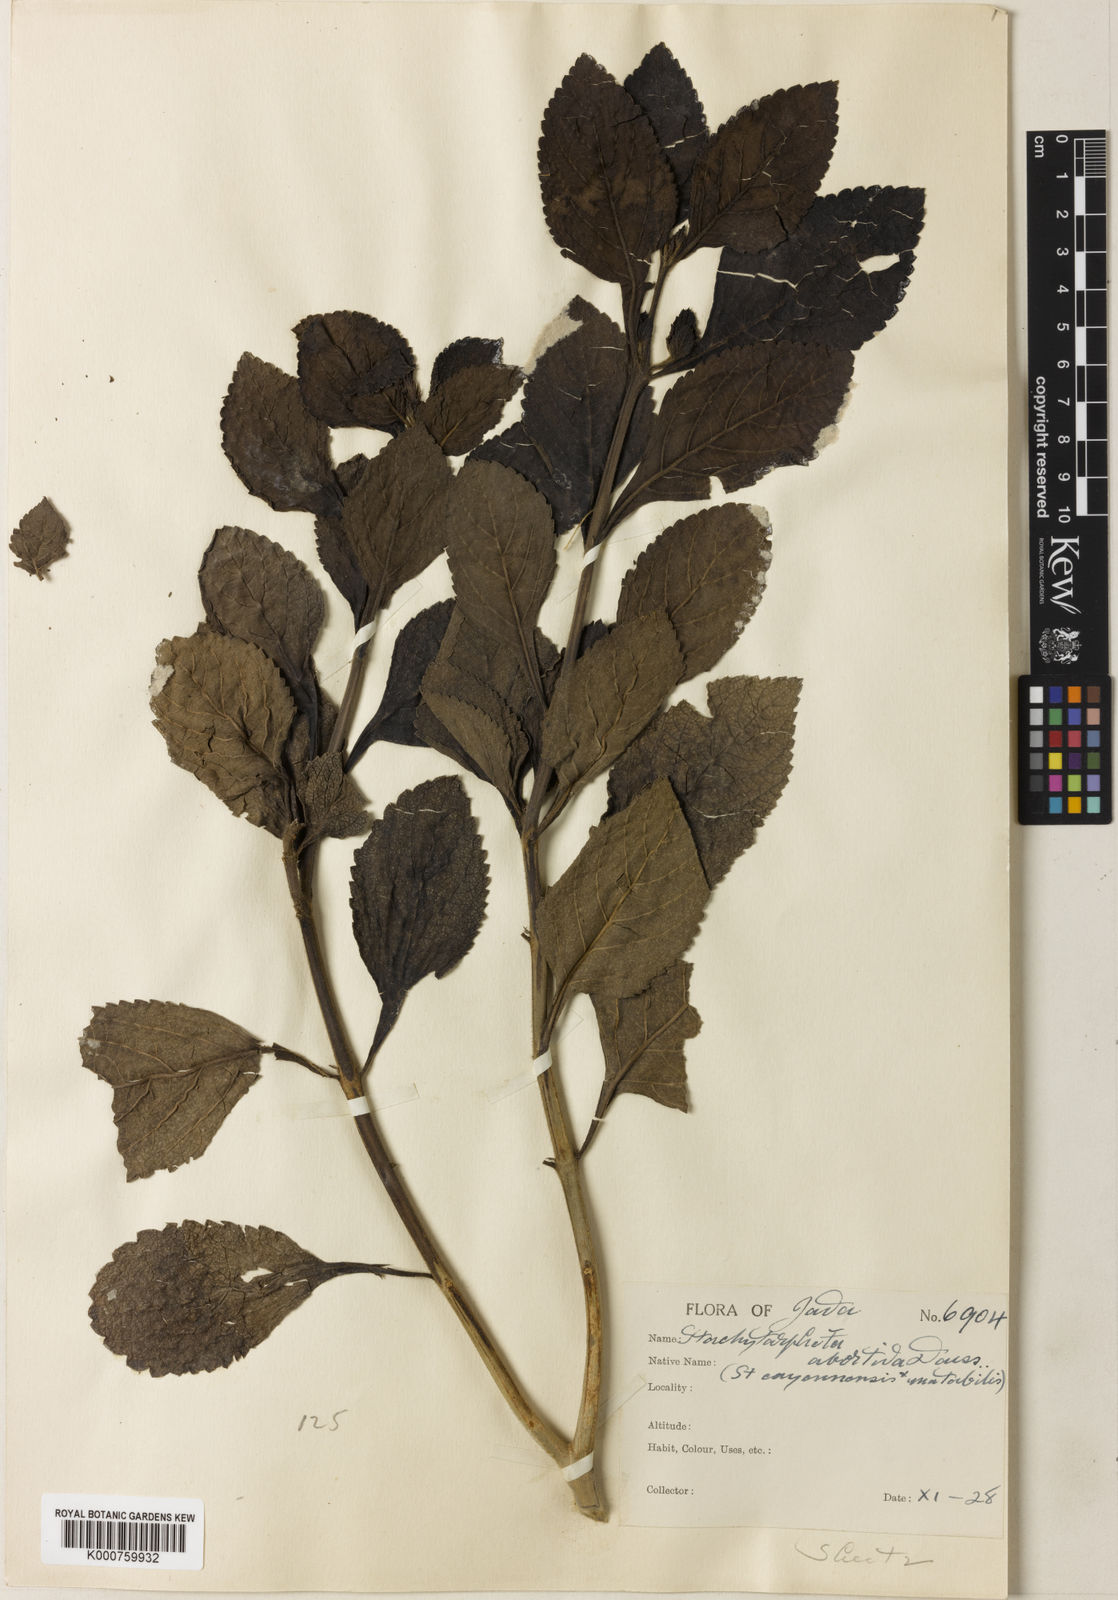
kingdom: Plantae
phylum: Tracheophyta
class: Magnoliopsida
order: Lamiales
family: Verbenaceae
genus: Stachytarpheta
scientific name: Stachytarpheta abortiva
